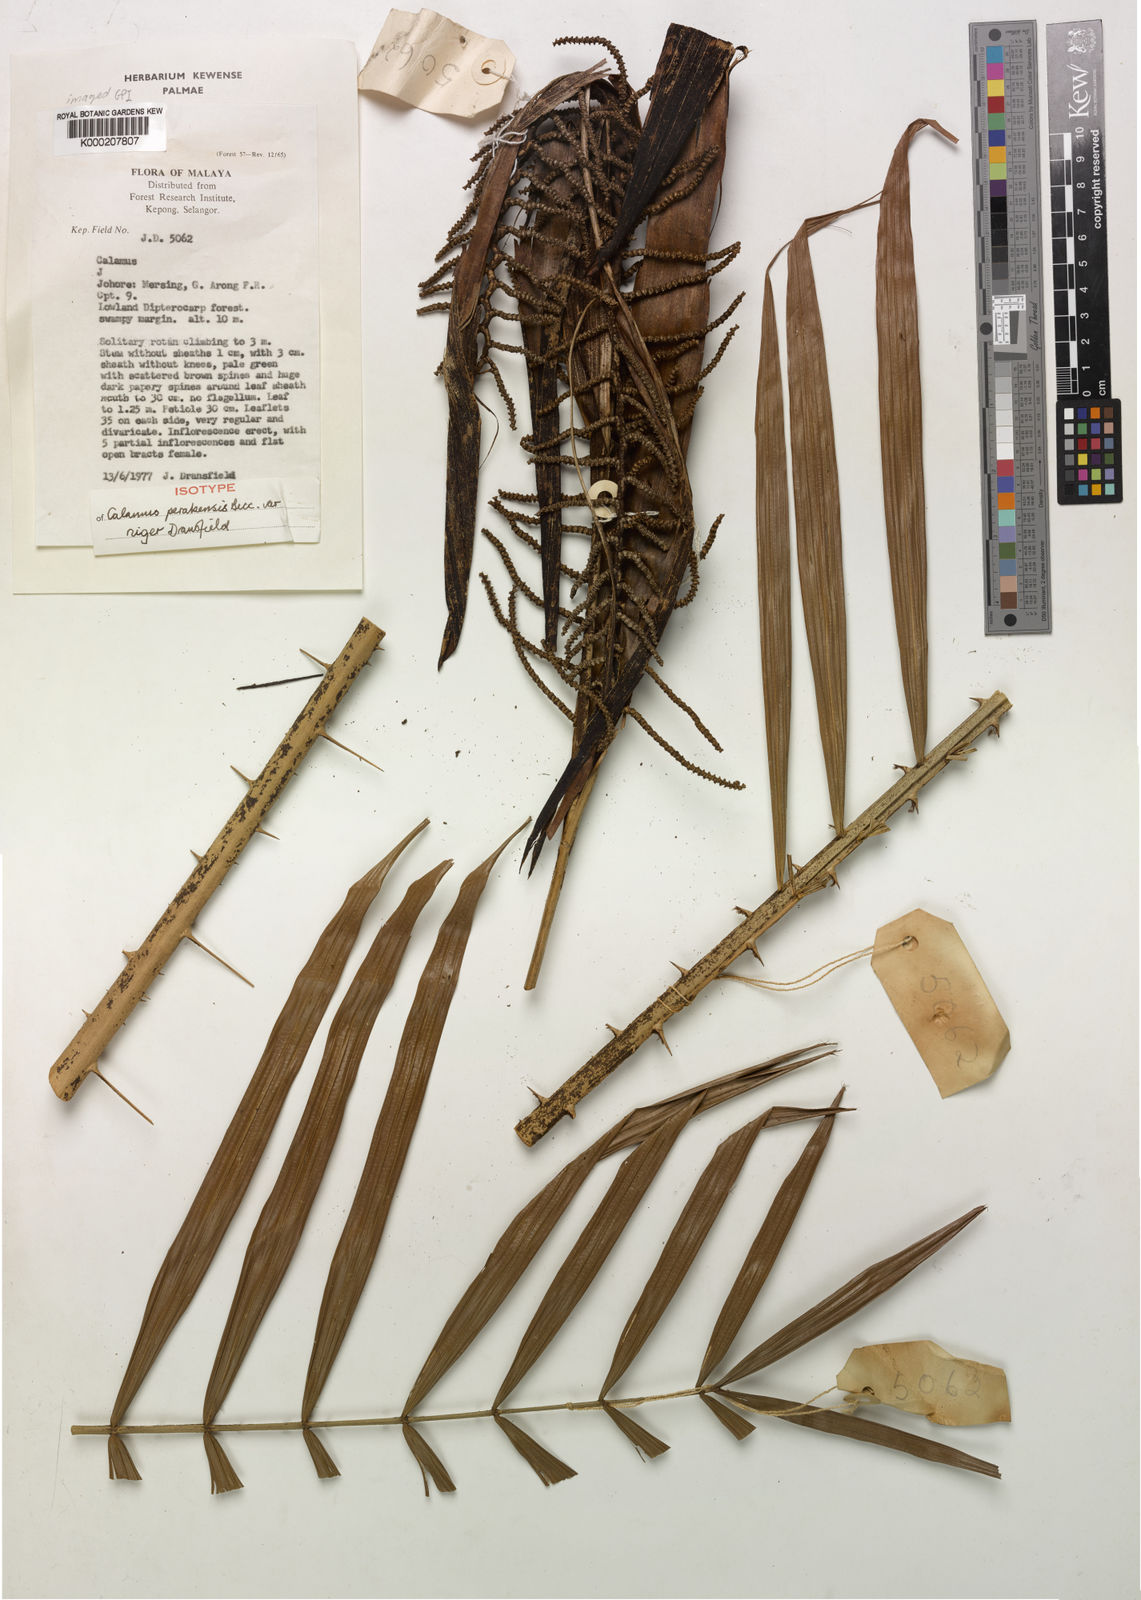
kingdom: Plantae
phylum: Tracheophyta
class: Liliopsida
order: Arecales
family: Arecaceae
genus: Calamus
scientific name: Calamus perakensis
